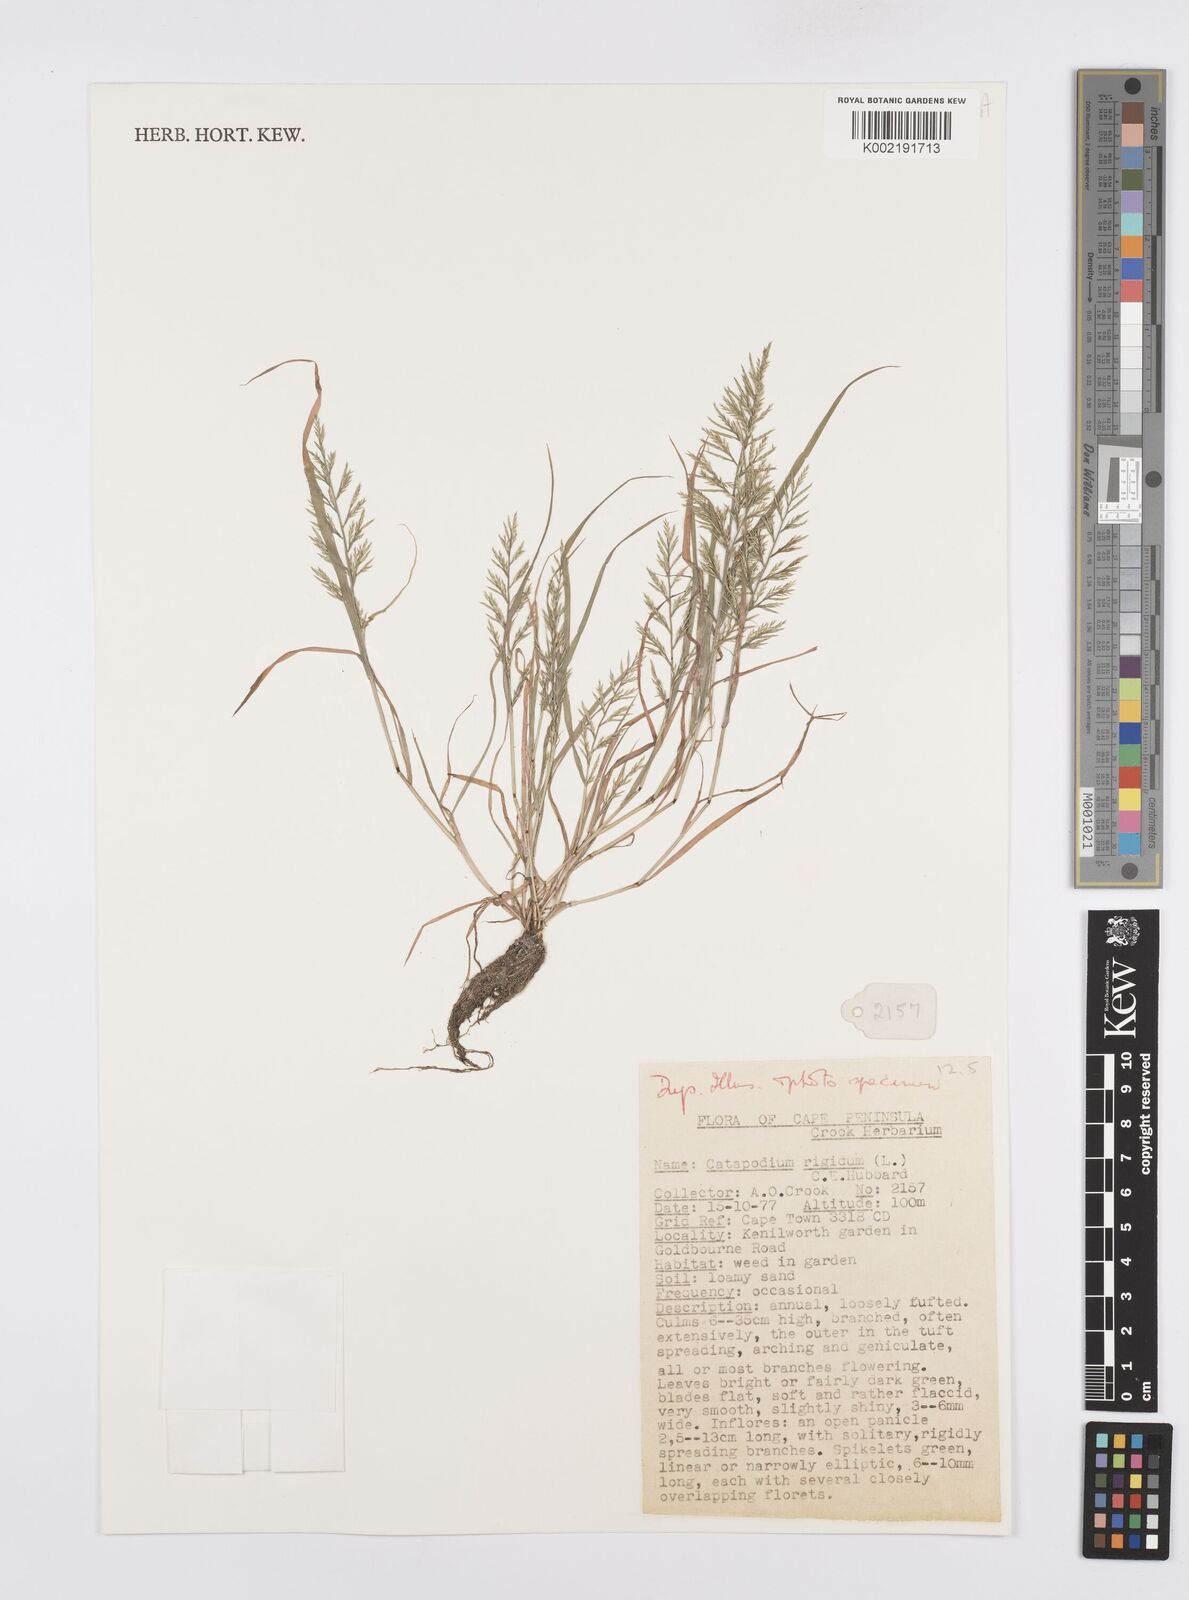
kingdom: Plantae
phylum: Tracheophyta
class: Liliopsida
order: Poales
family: Poaceae
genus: Catapodium
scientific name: Catapodium rigidum
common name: Fern-grass
